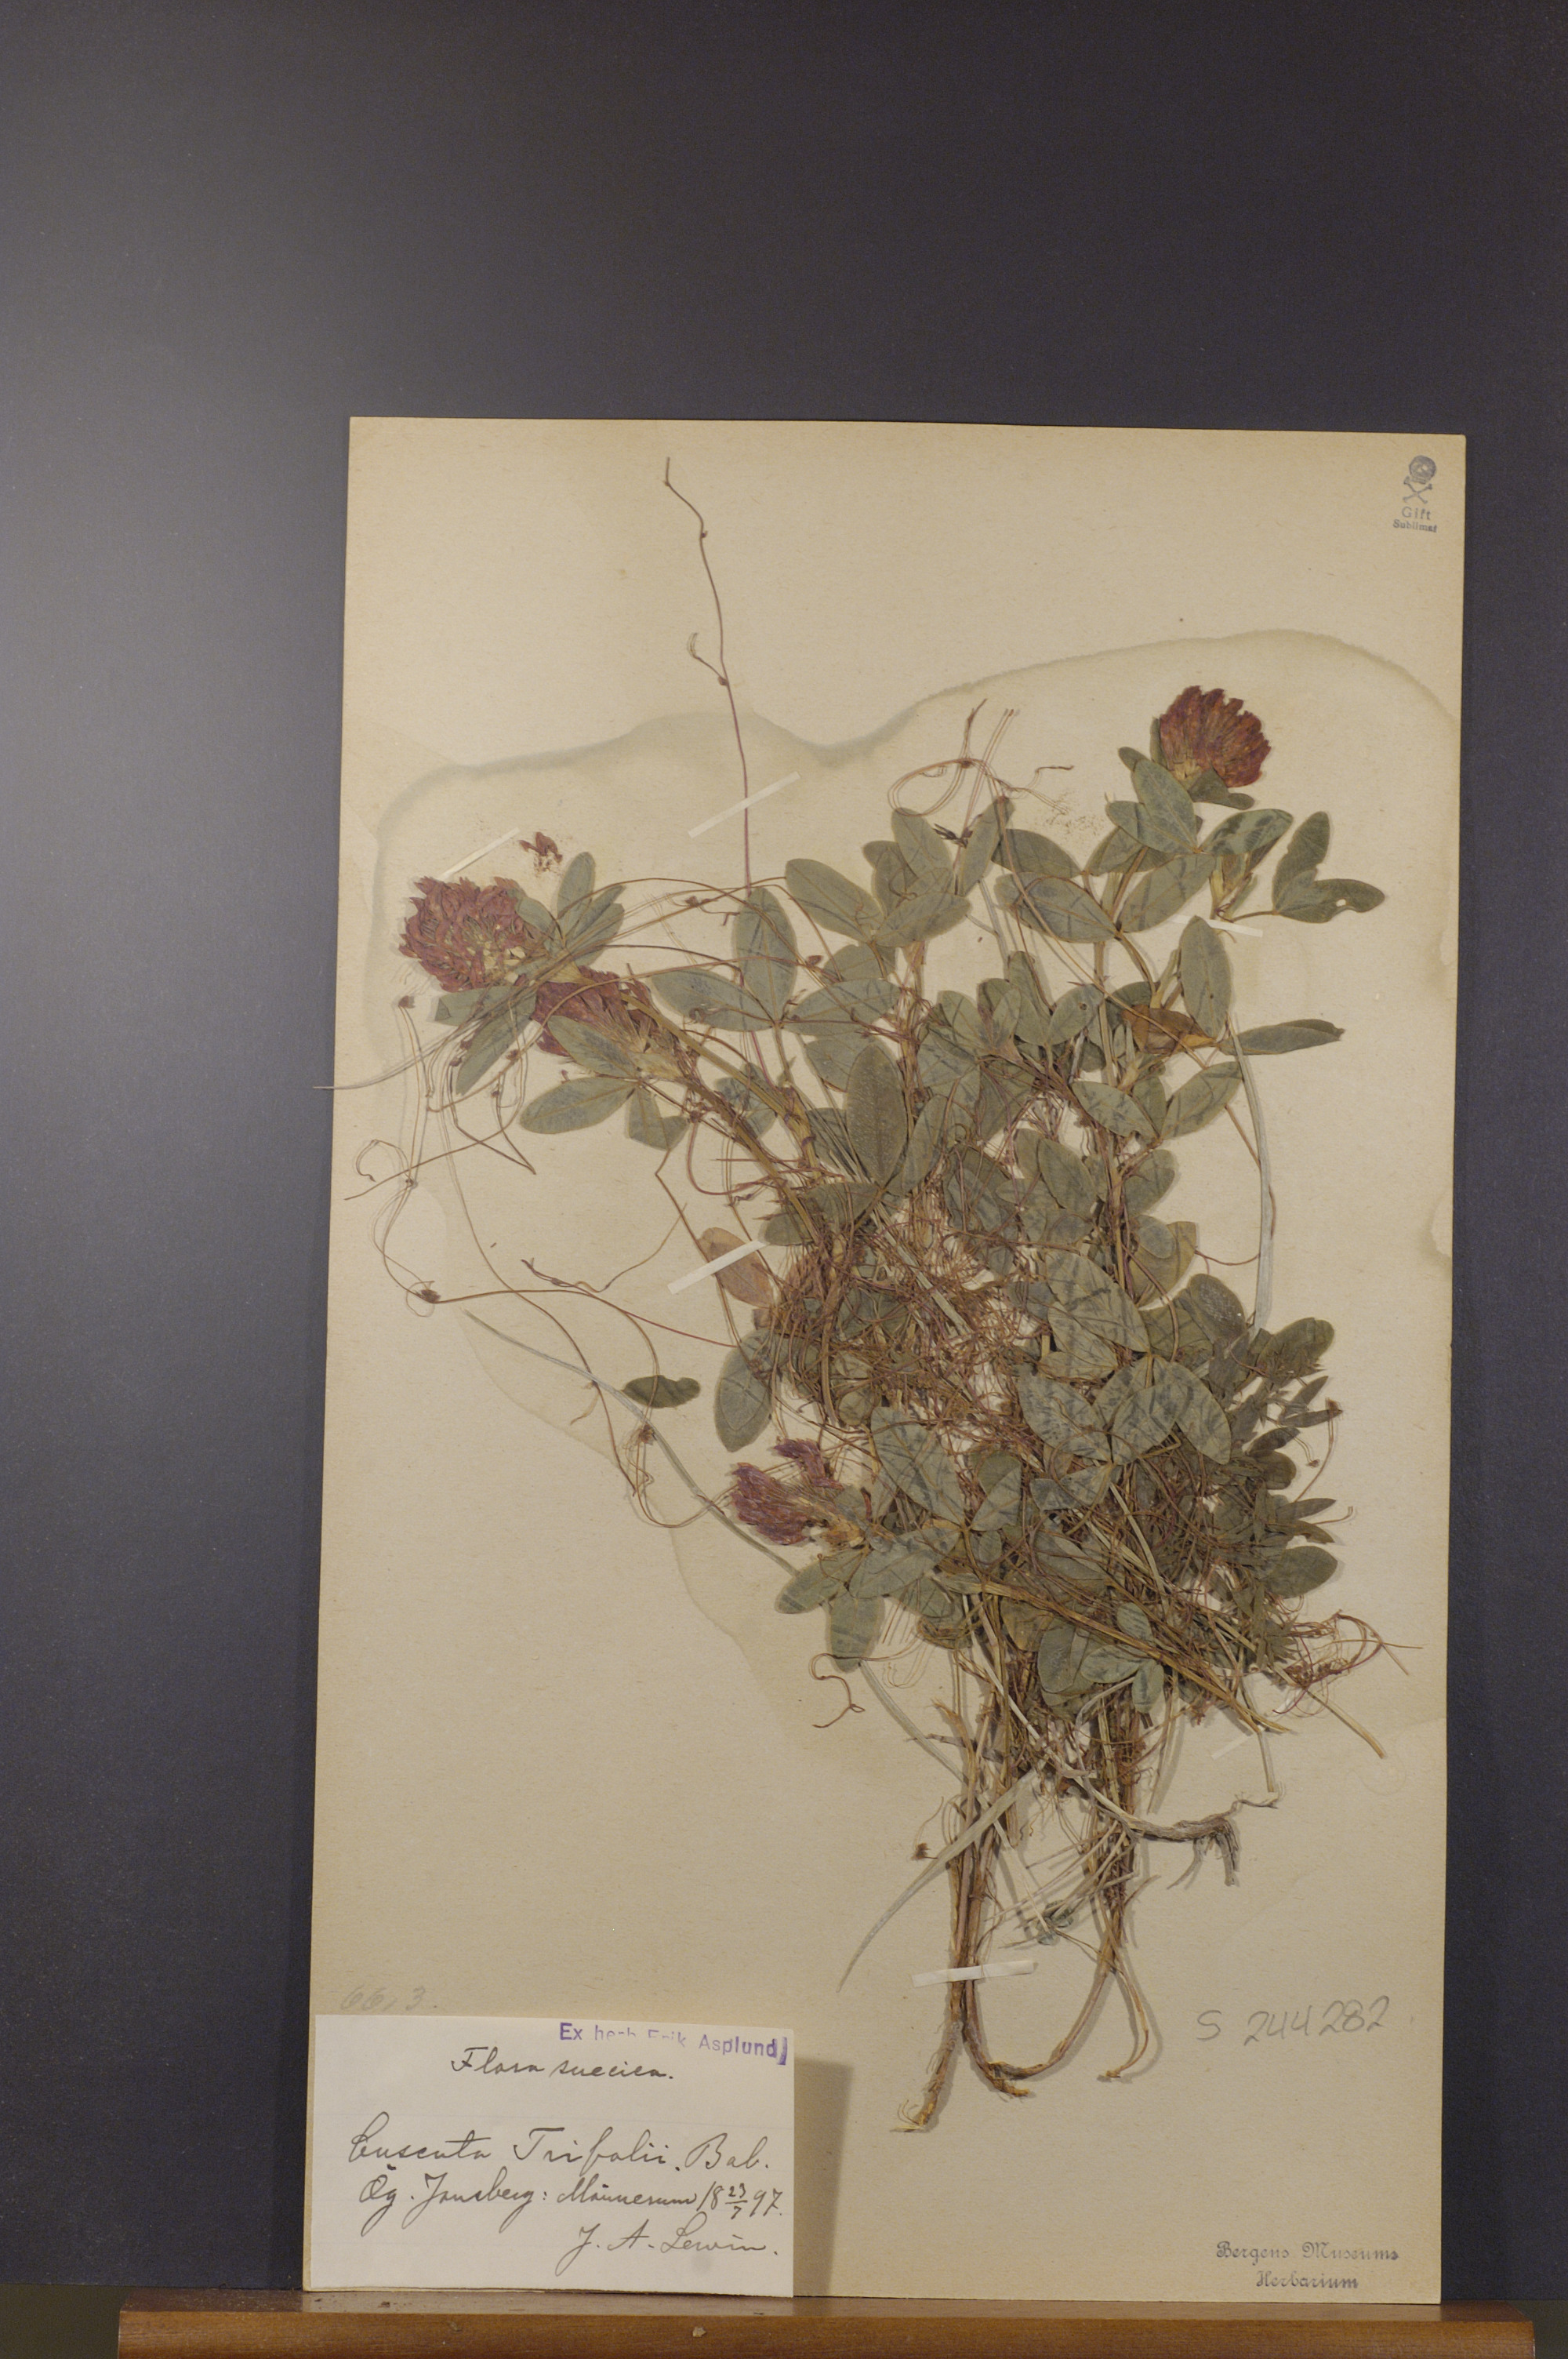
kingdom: Plantae
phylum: Tracheophyta
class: Magnoliopsida
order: Solanales
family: Convolvulaceae
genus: Cuscuta
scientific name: Cuscuta epithymum
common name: Clover dodder
